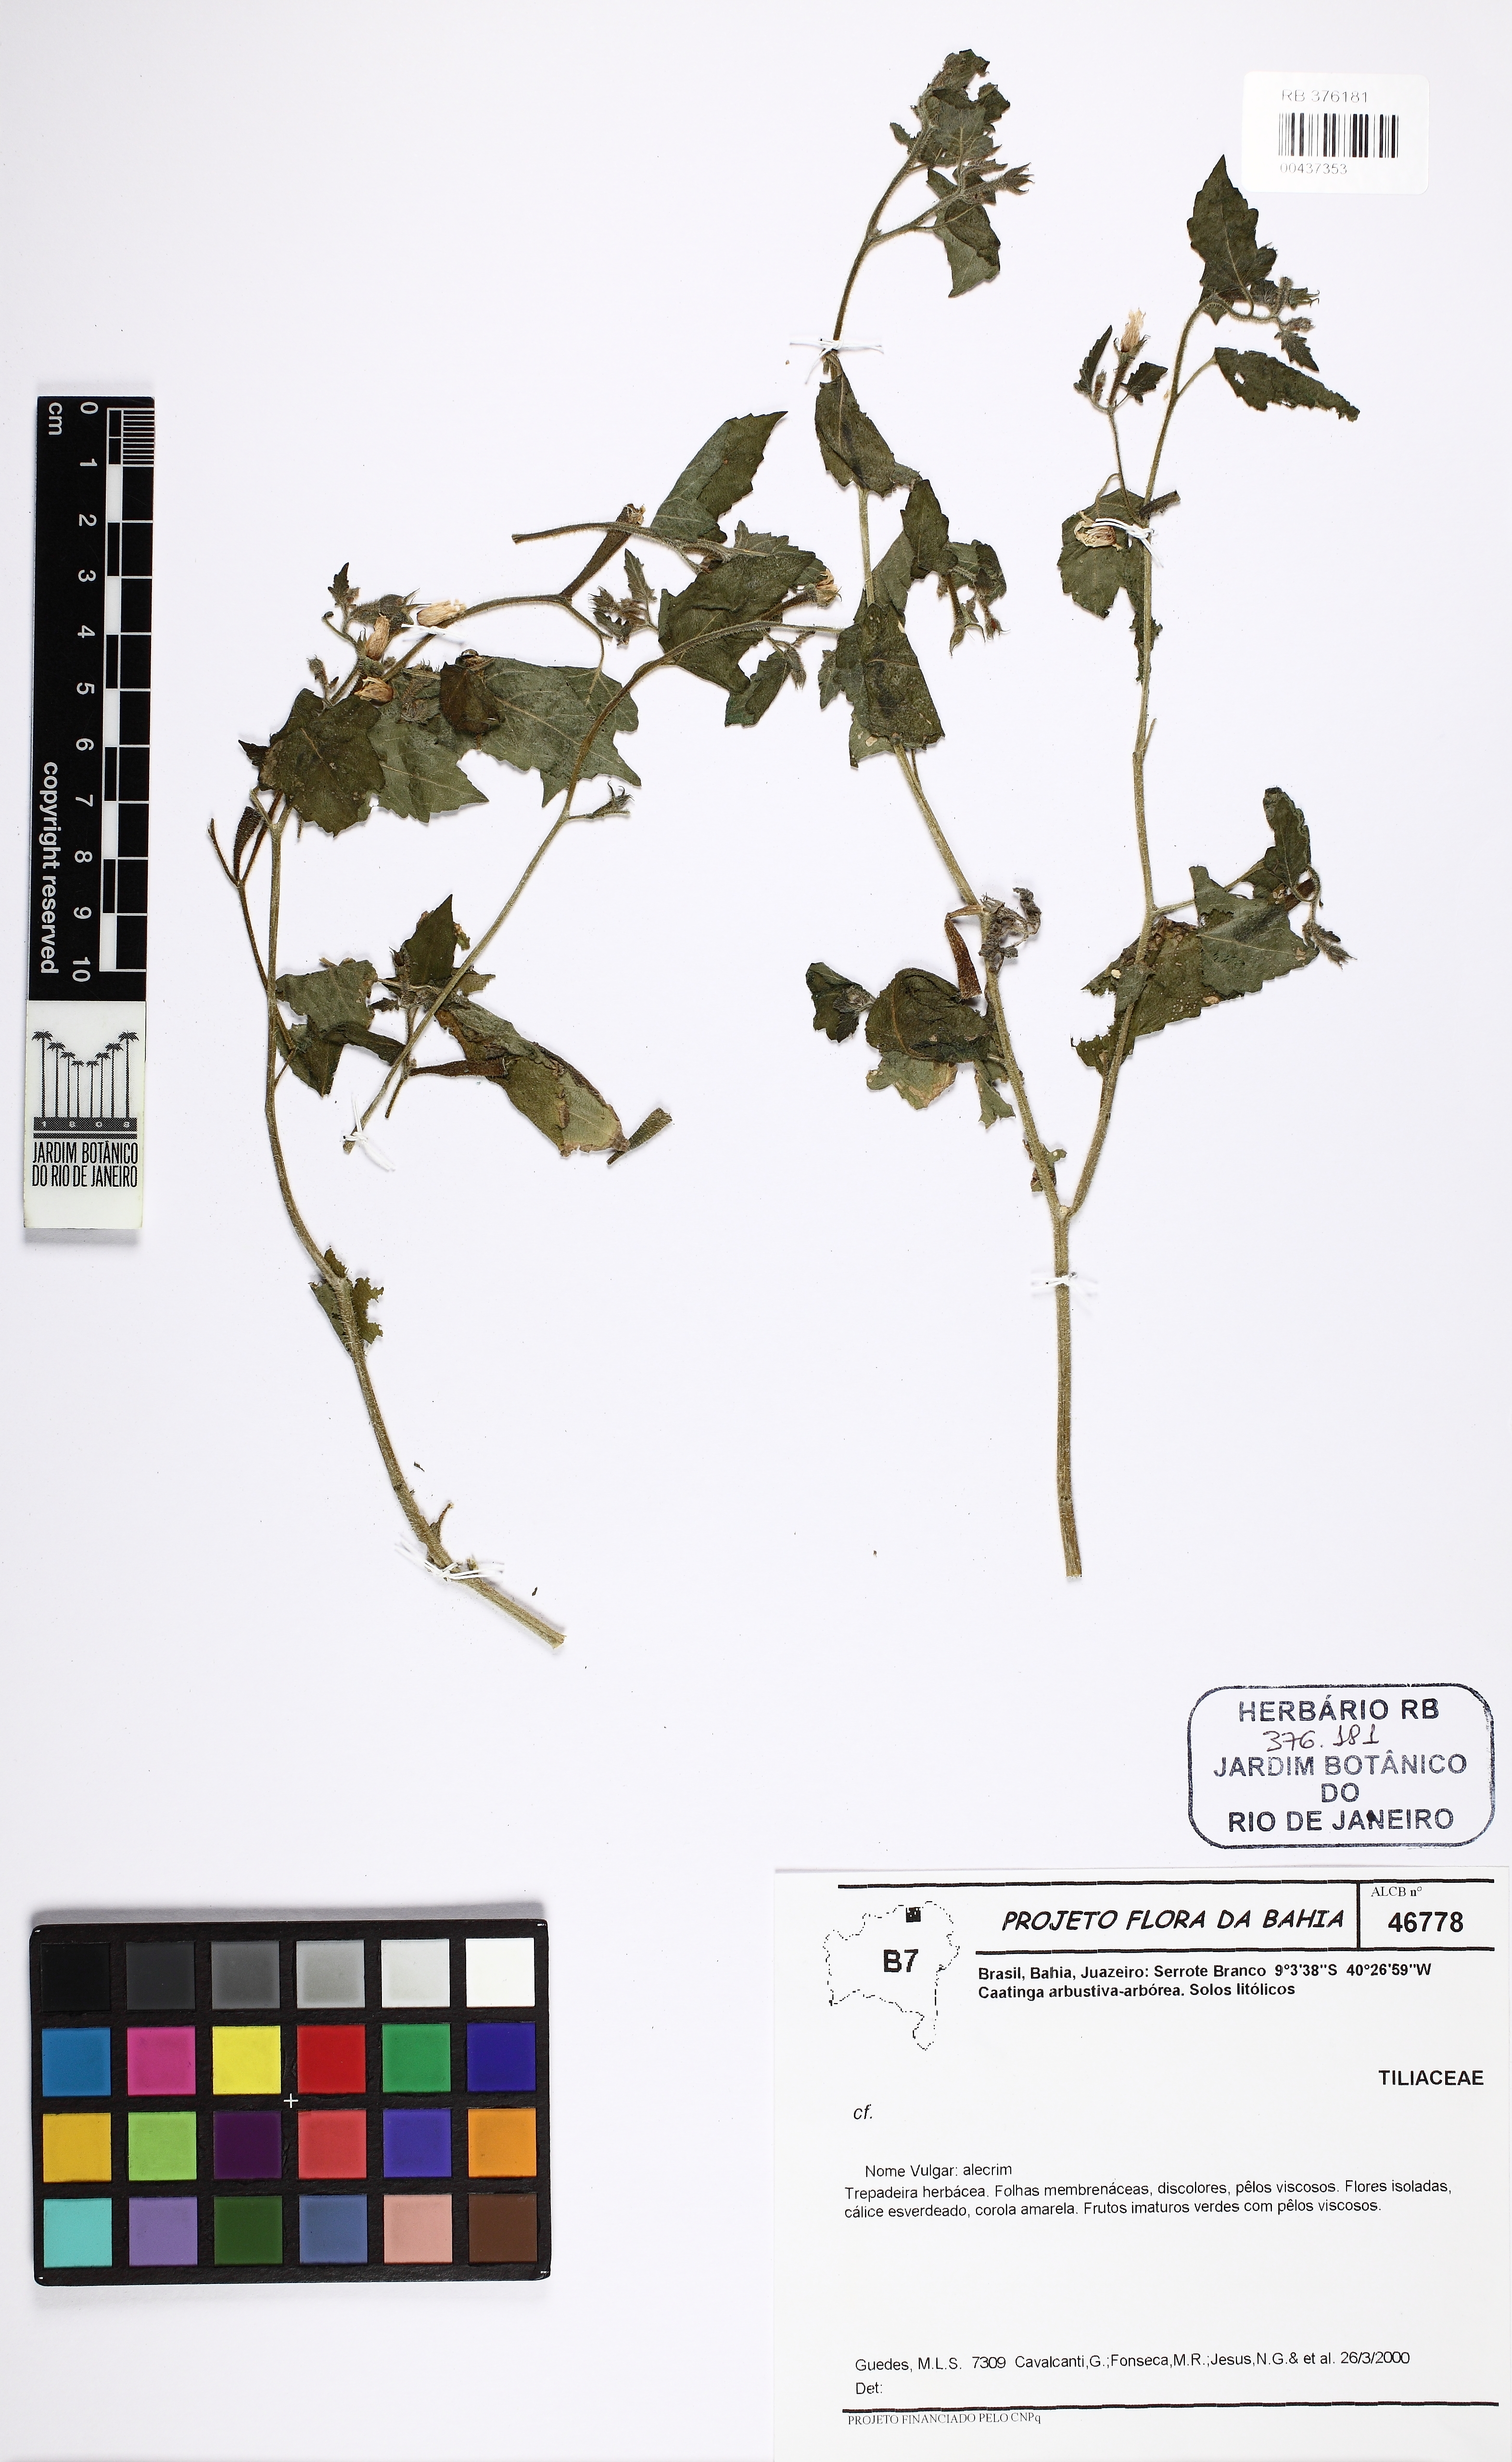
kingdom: Plantae
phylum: Tracheophyta
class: Magnoliopsida
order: Malpighiales
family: Salicaceae
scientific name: Salicaceae
